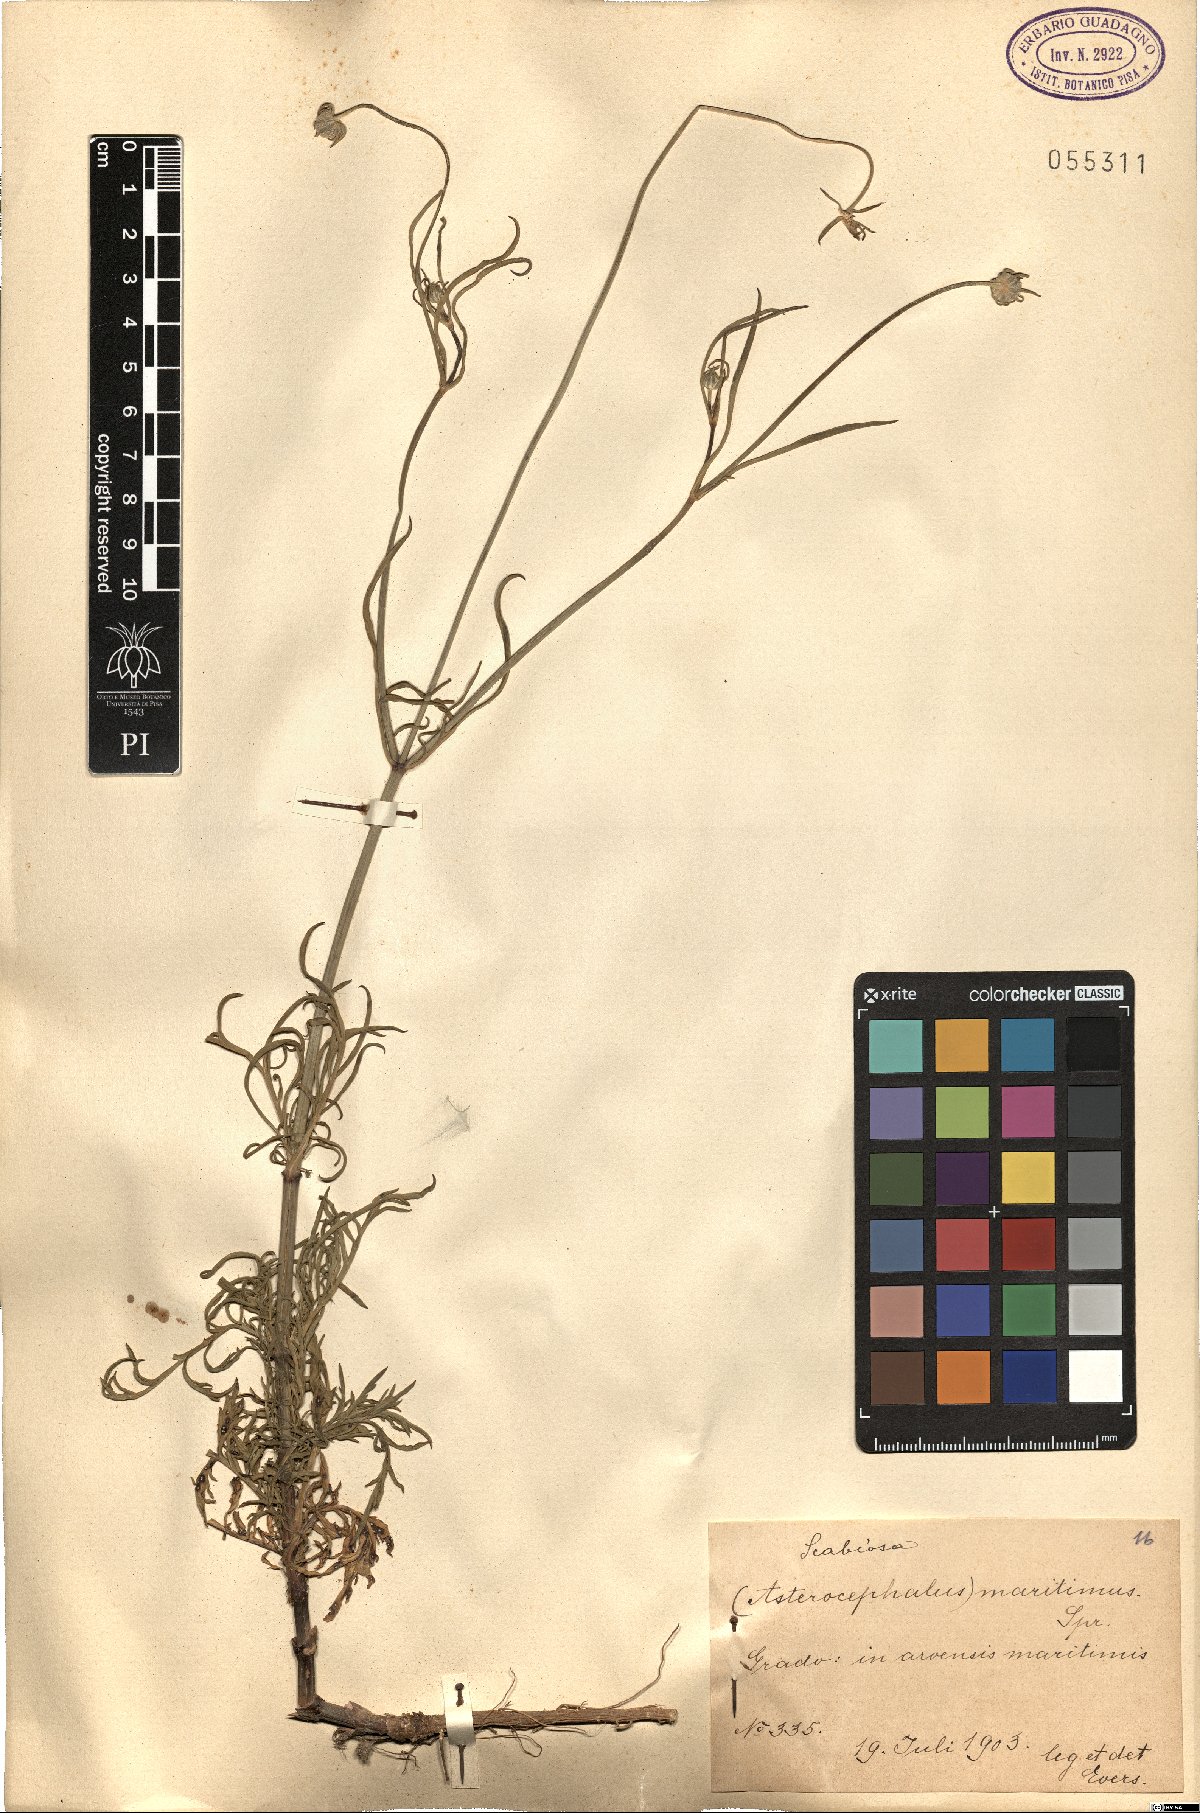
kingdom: Plantae
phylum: Tracheophyta
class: Magnoliopsida
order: Dipsacales
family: Caprifoliaceae
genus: Scabiosa
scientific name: Scabiosa
